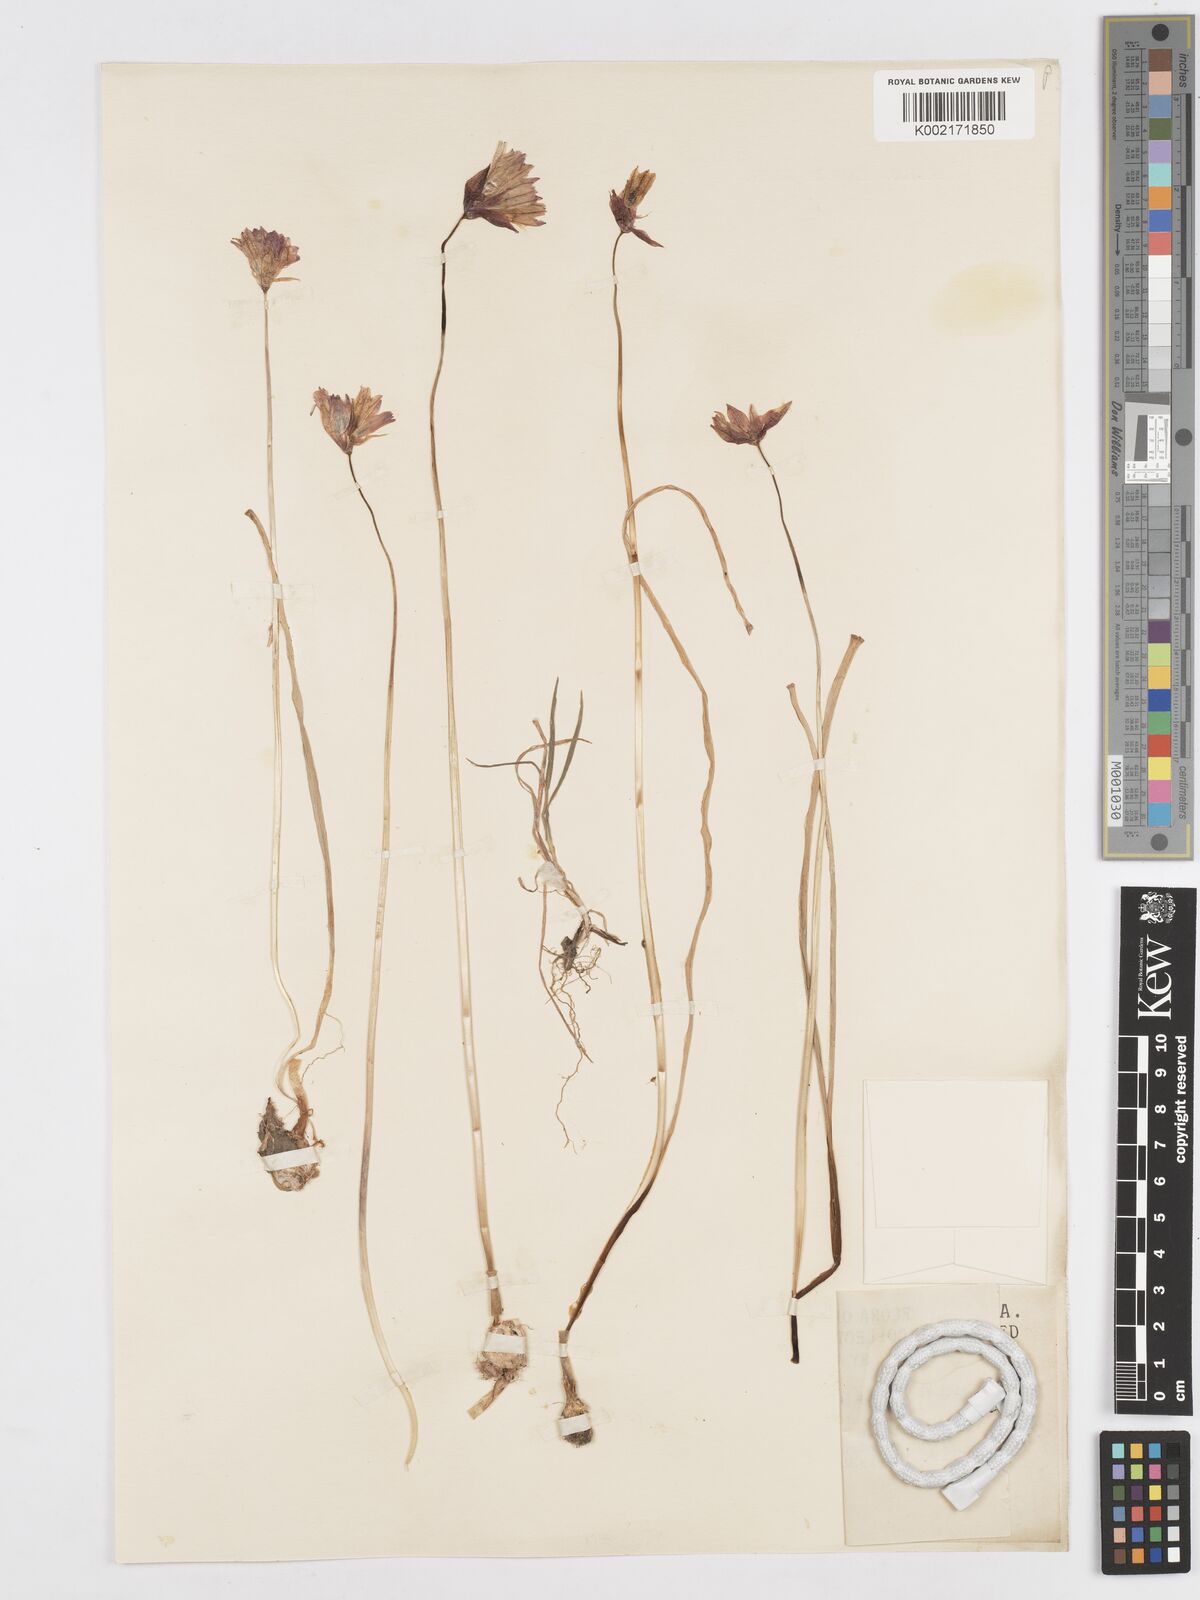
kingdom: Plantae
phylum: Tracheophyta
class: Liliopsida
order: Asparagales
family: Asparagaceae
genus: Dichelostemma
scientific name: Dichelostemma congestum
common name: Fork-tooth ookow
